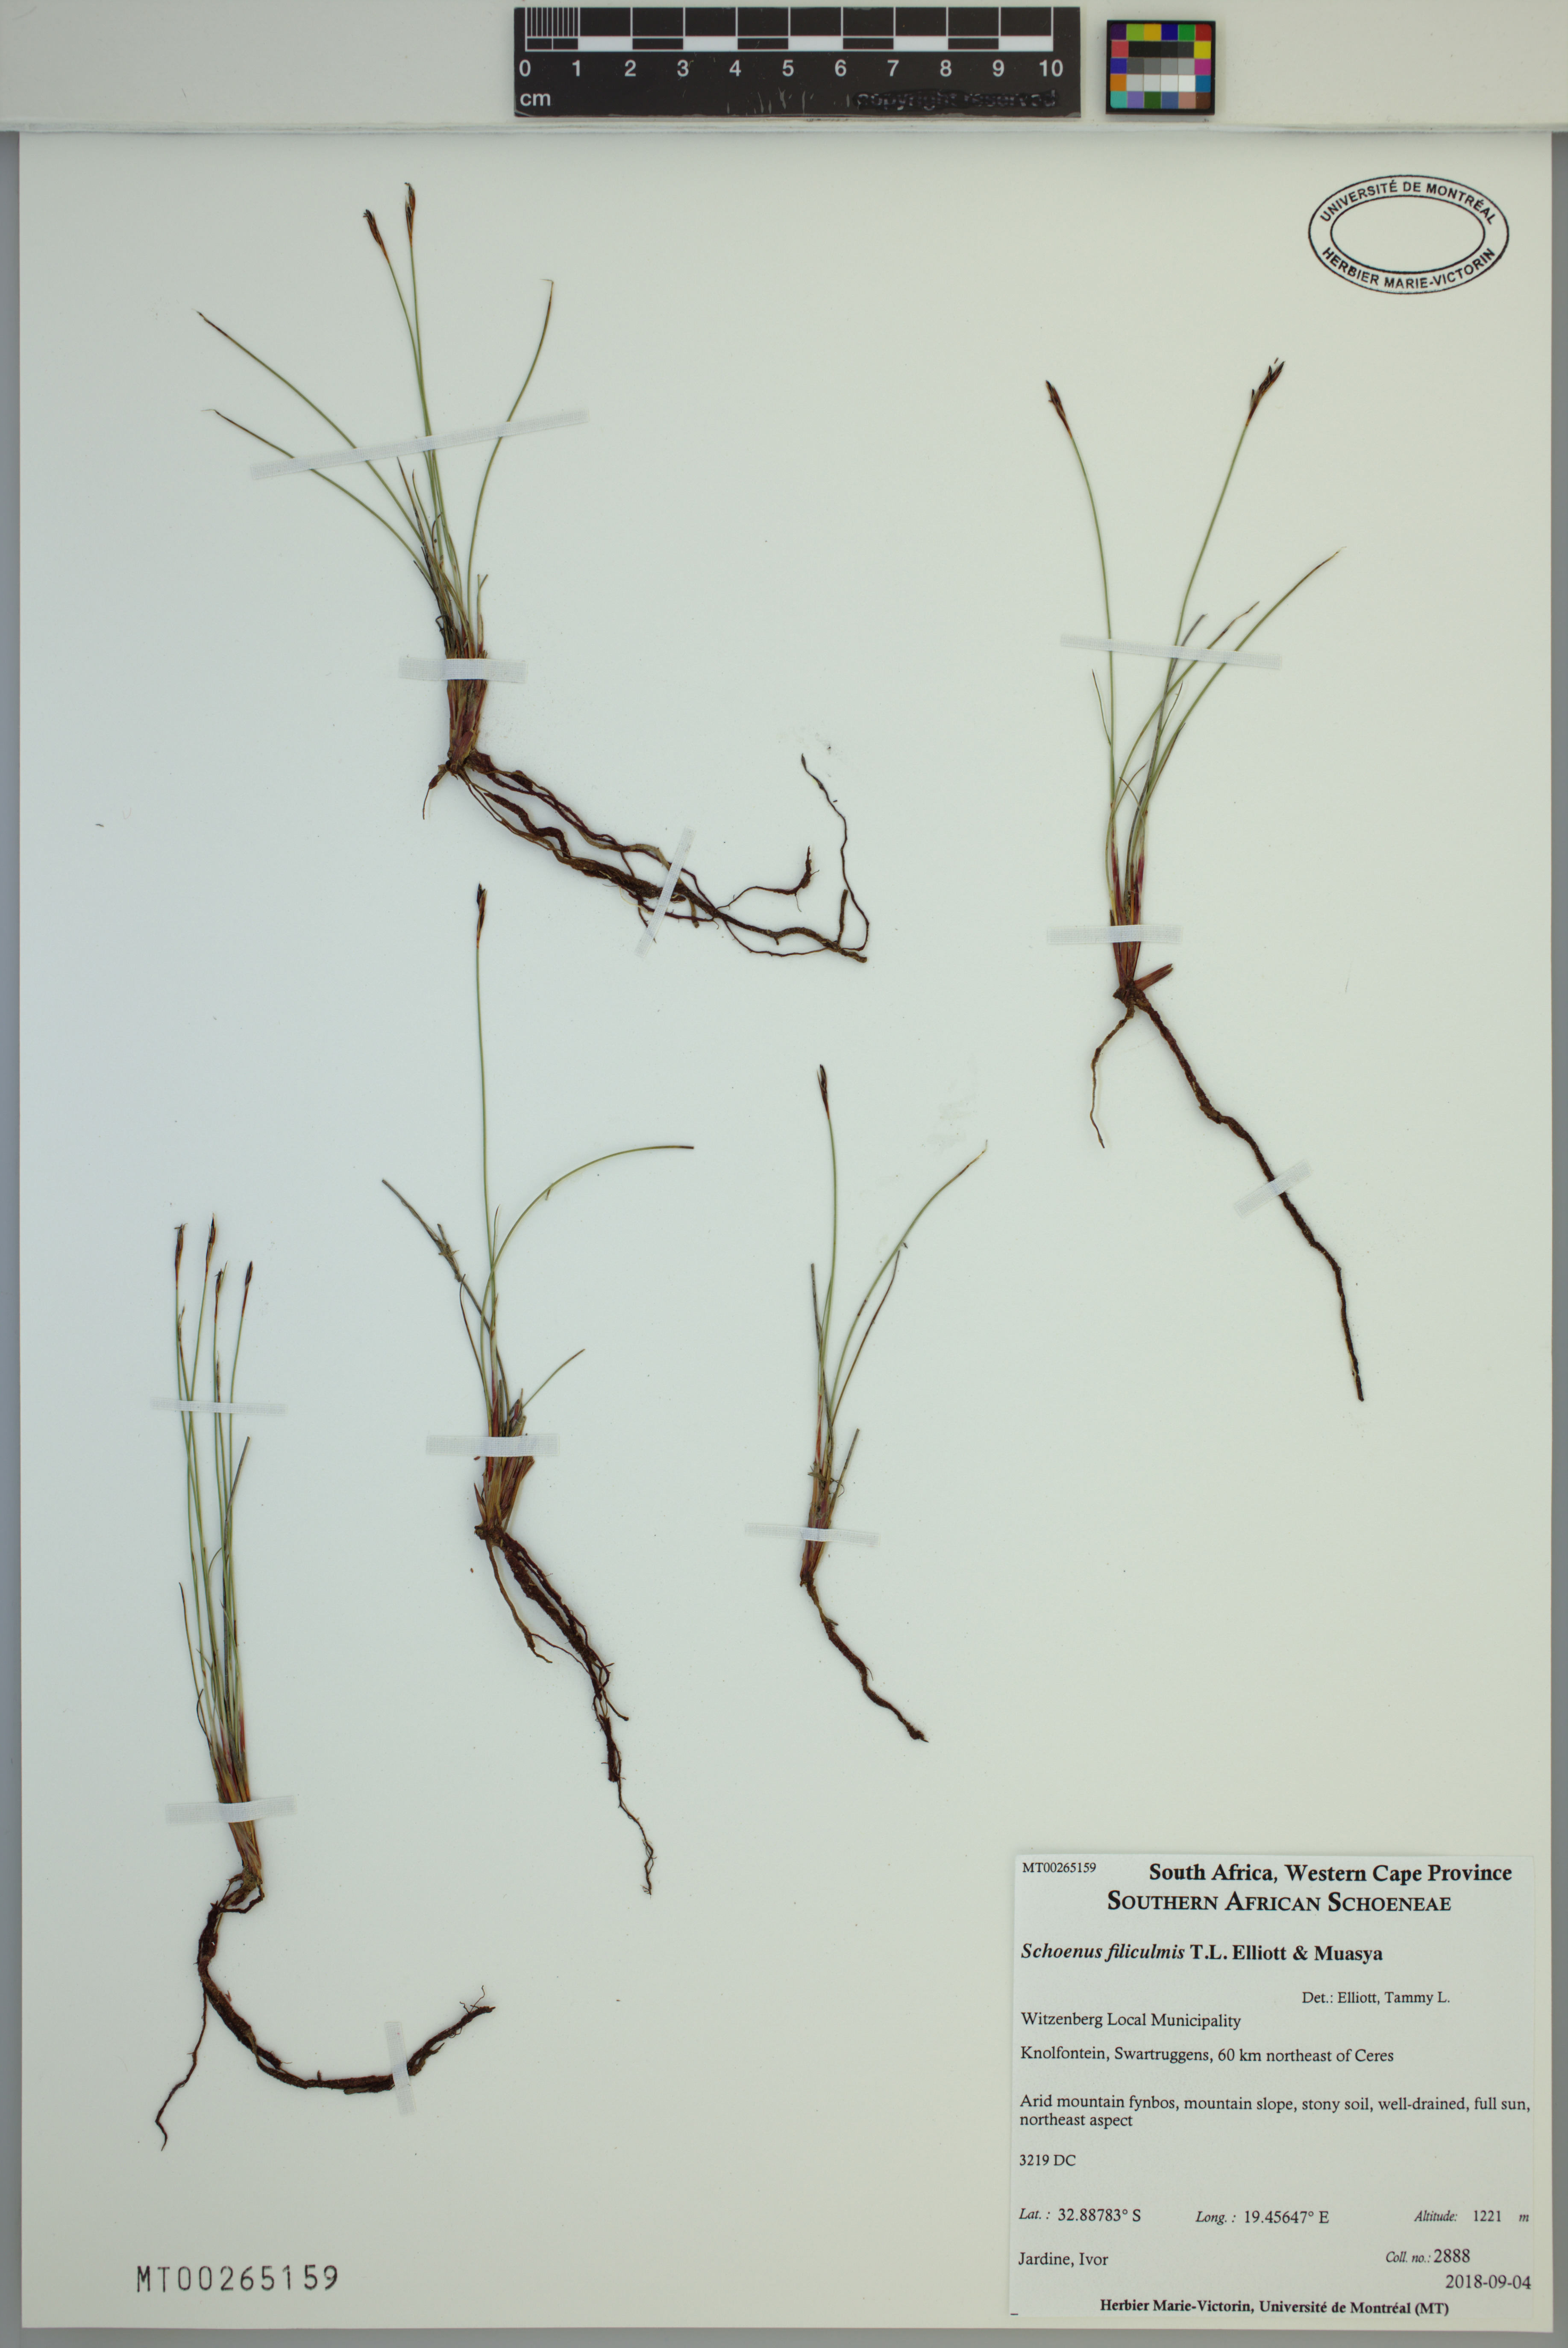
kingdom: Plantae
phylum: Tracheophyta
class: Liliopsida
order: Poales
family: Cyperaceae
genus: Schoenus
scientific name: Schoenus filiculmis
